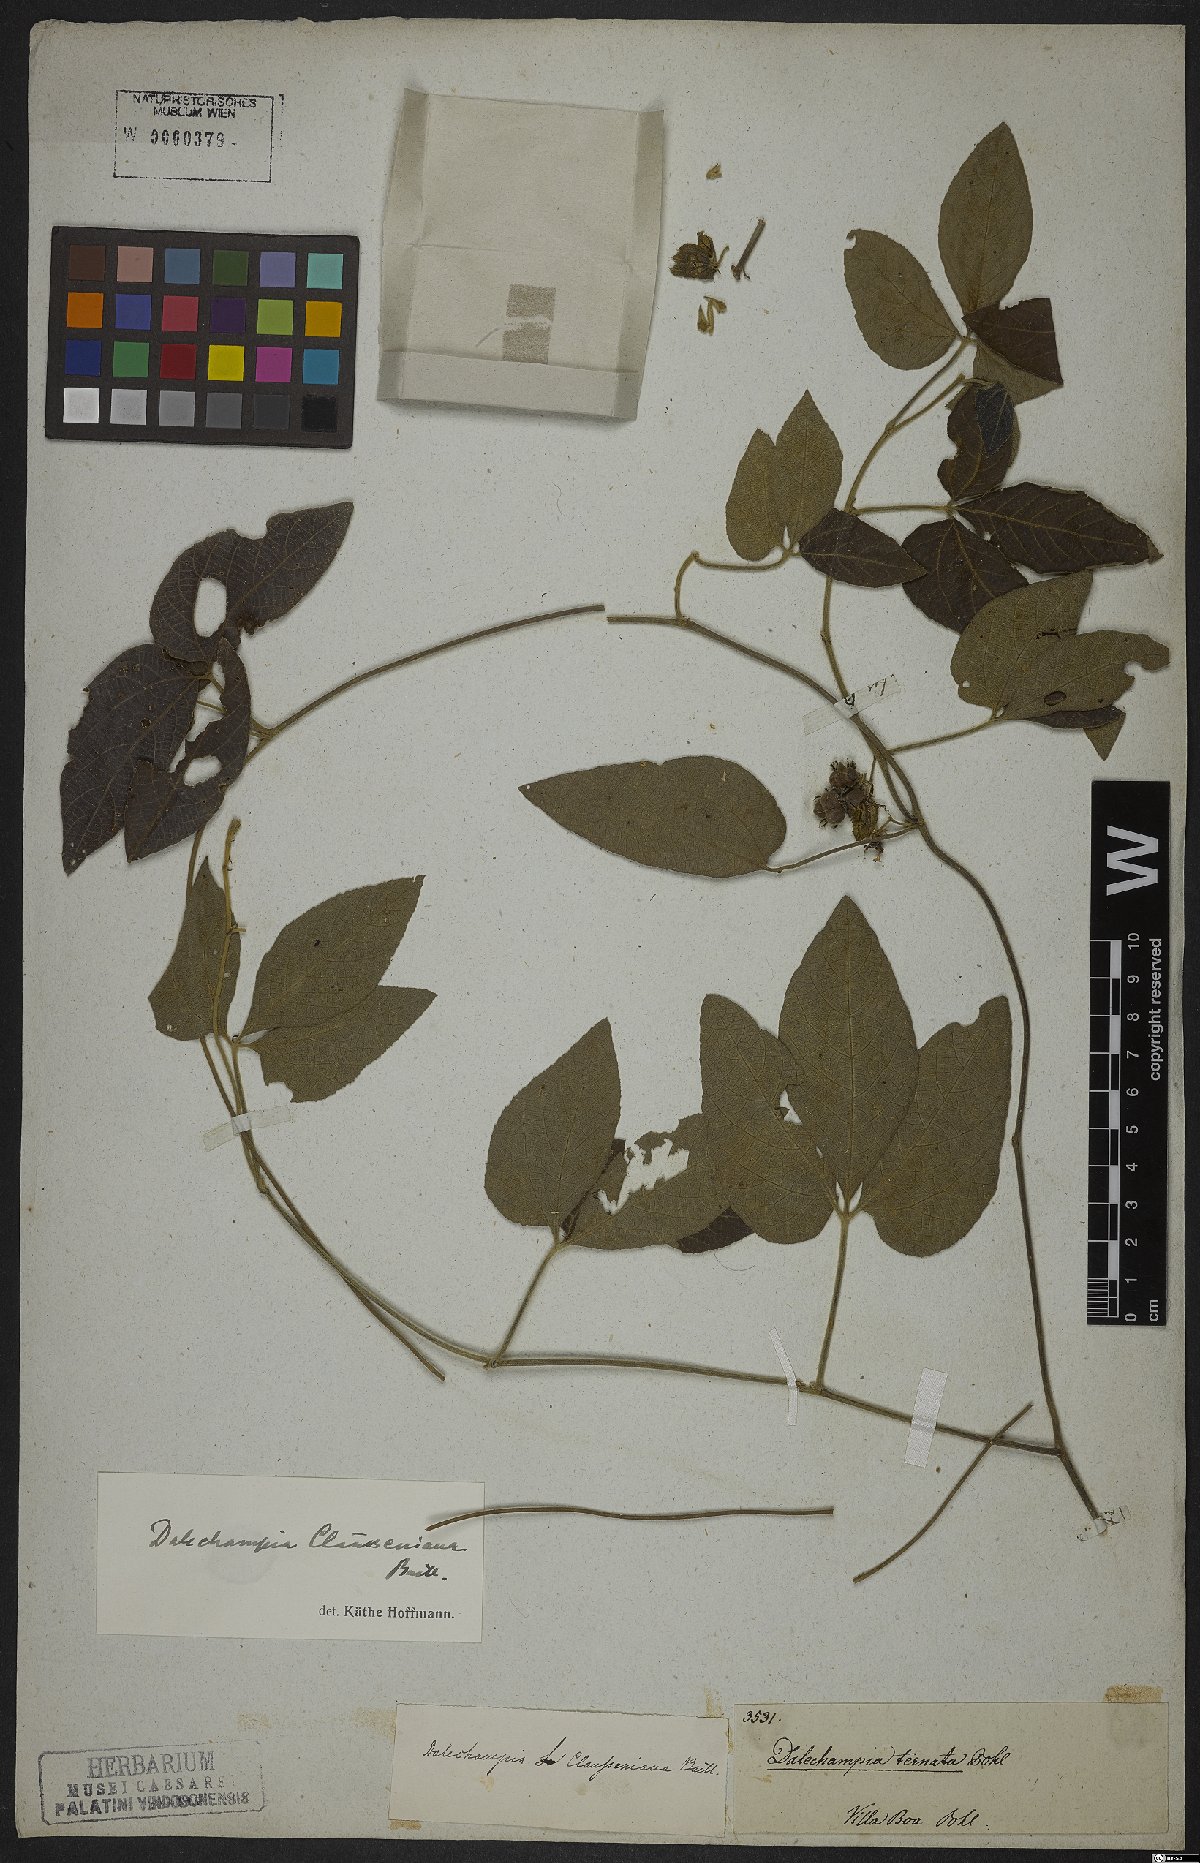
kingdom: Plantae
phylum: Tracheophyta
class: Magnoliopsida
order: Malpighiales
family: Euphorbiaceae
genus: Dalechampia
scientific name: Dalechampia clausseniana
